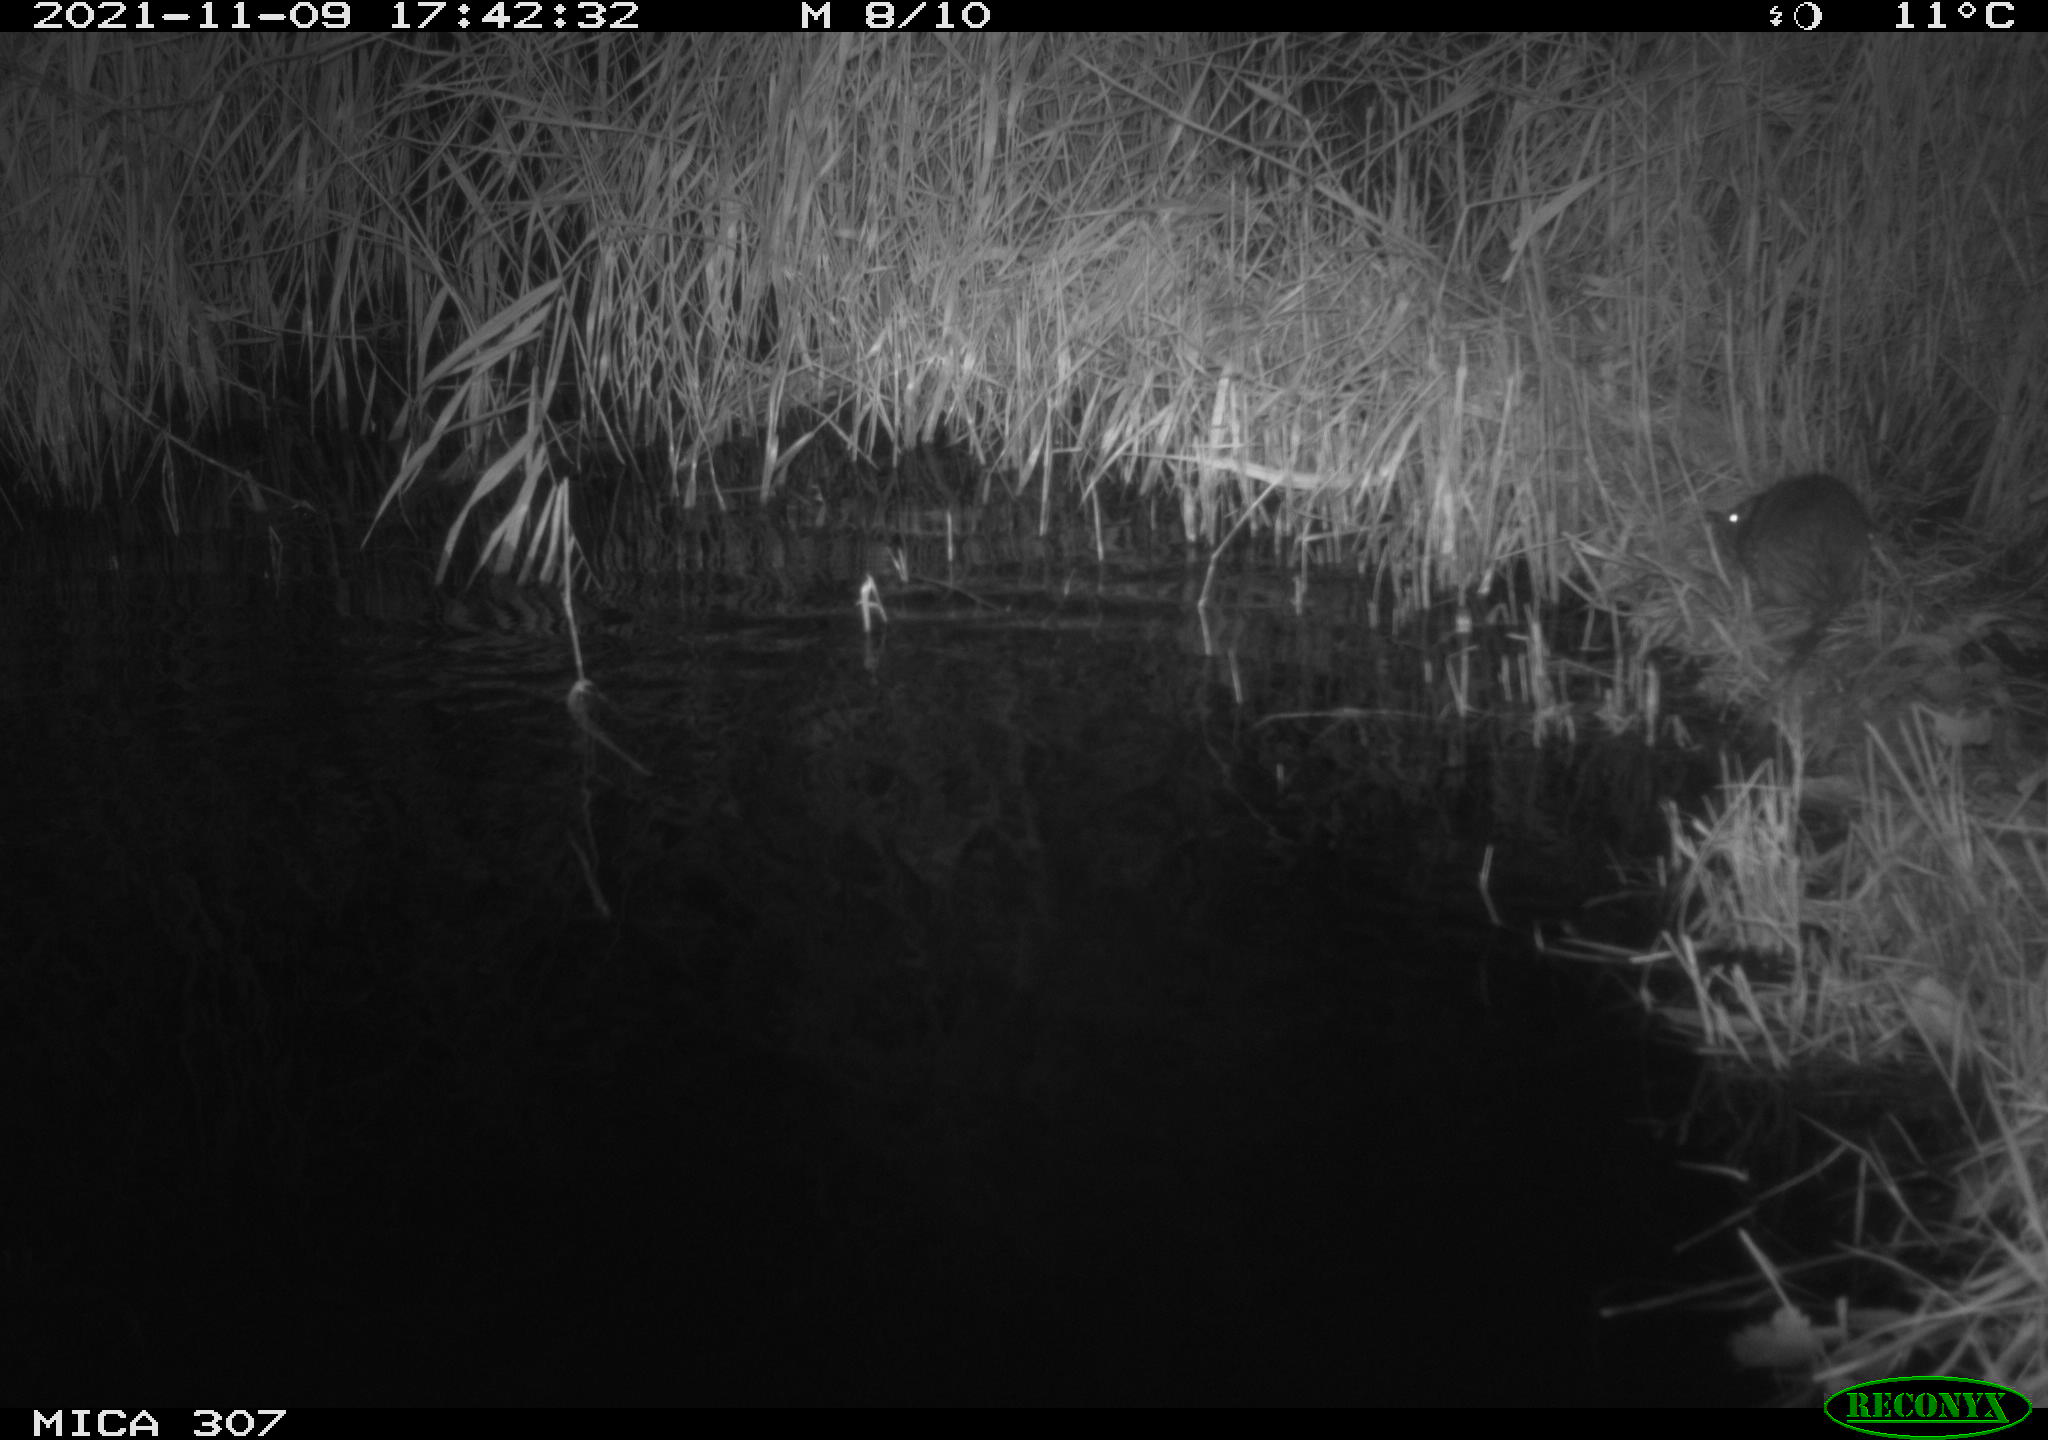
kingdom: Animalia
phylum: Chordata
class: Mammalia
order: Rodentia
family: Muridae
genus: Rattus
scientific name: Rattus norvegicus
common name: Brown rat
